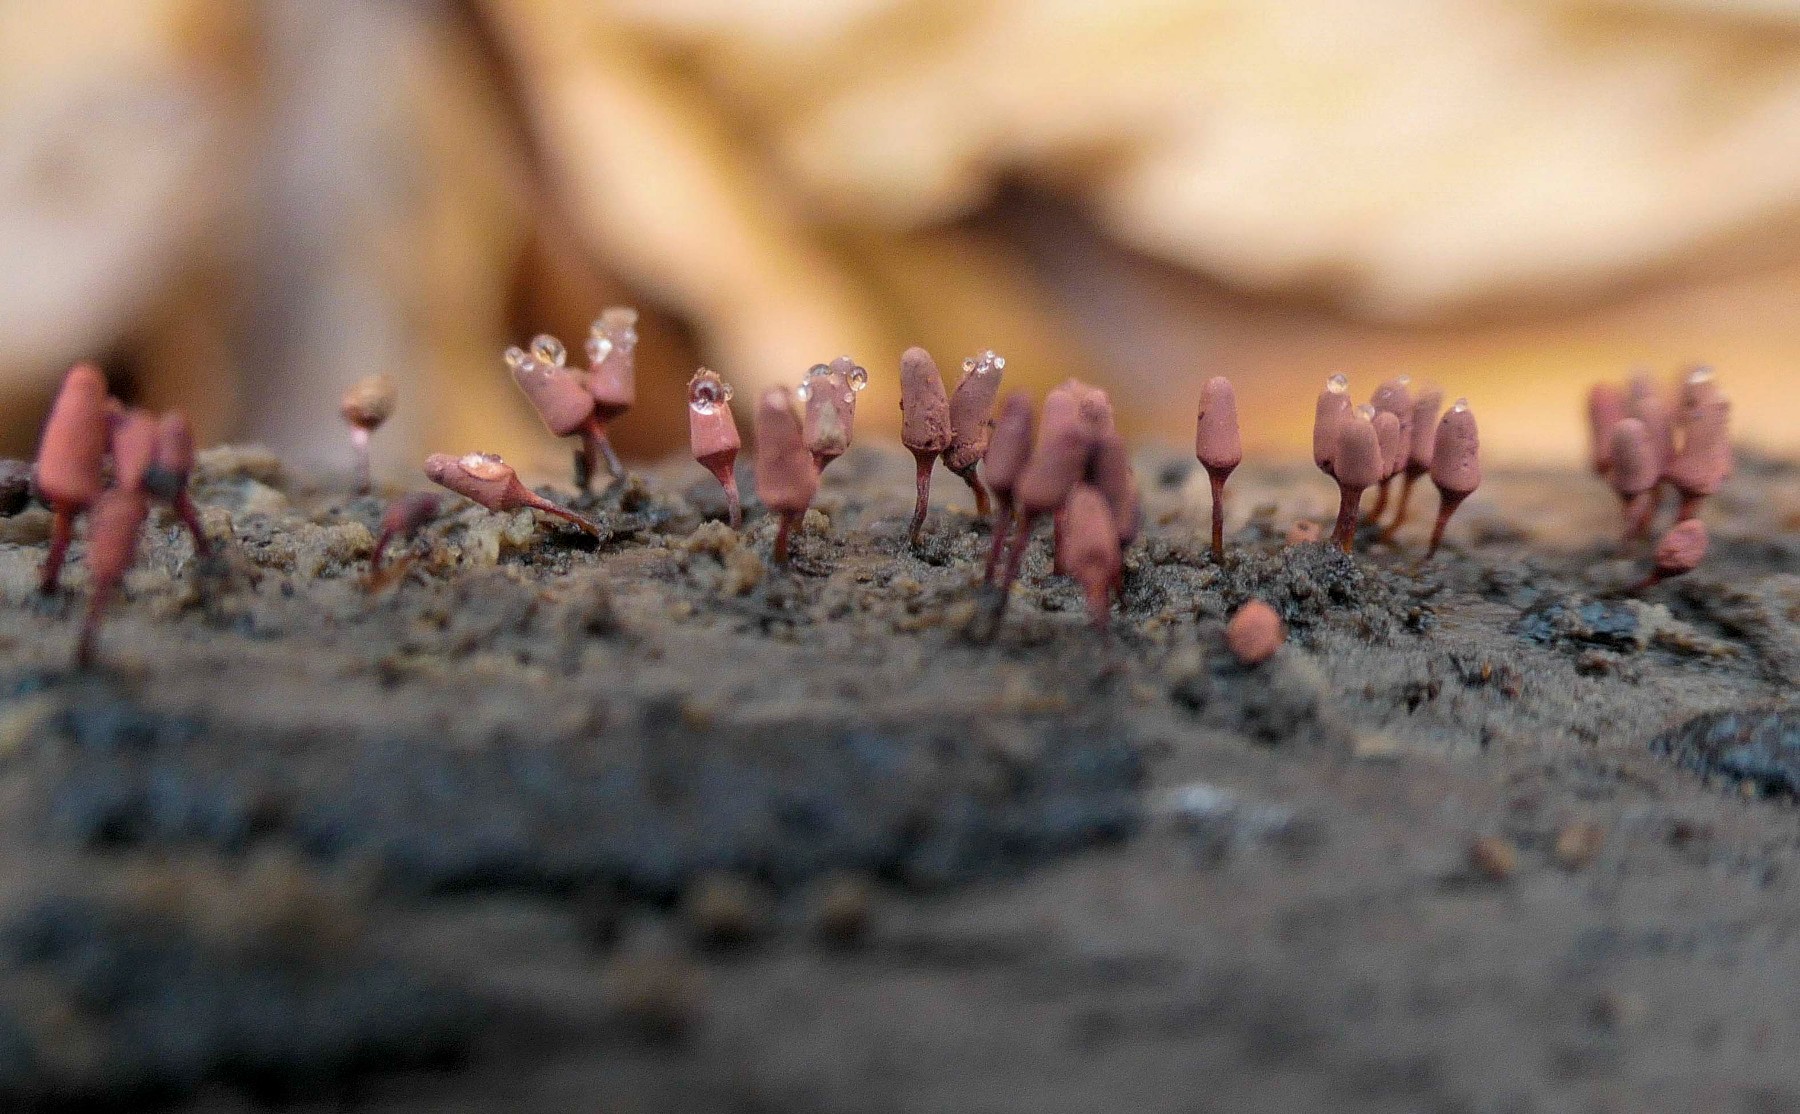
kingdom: Protozoa
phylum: Mycetozoa
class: Myxomycetes
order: Trichiales
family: Arcyriaceae
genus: Arcyria
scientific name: Arcyria denudata
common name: karminrød skålsvøb
